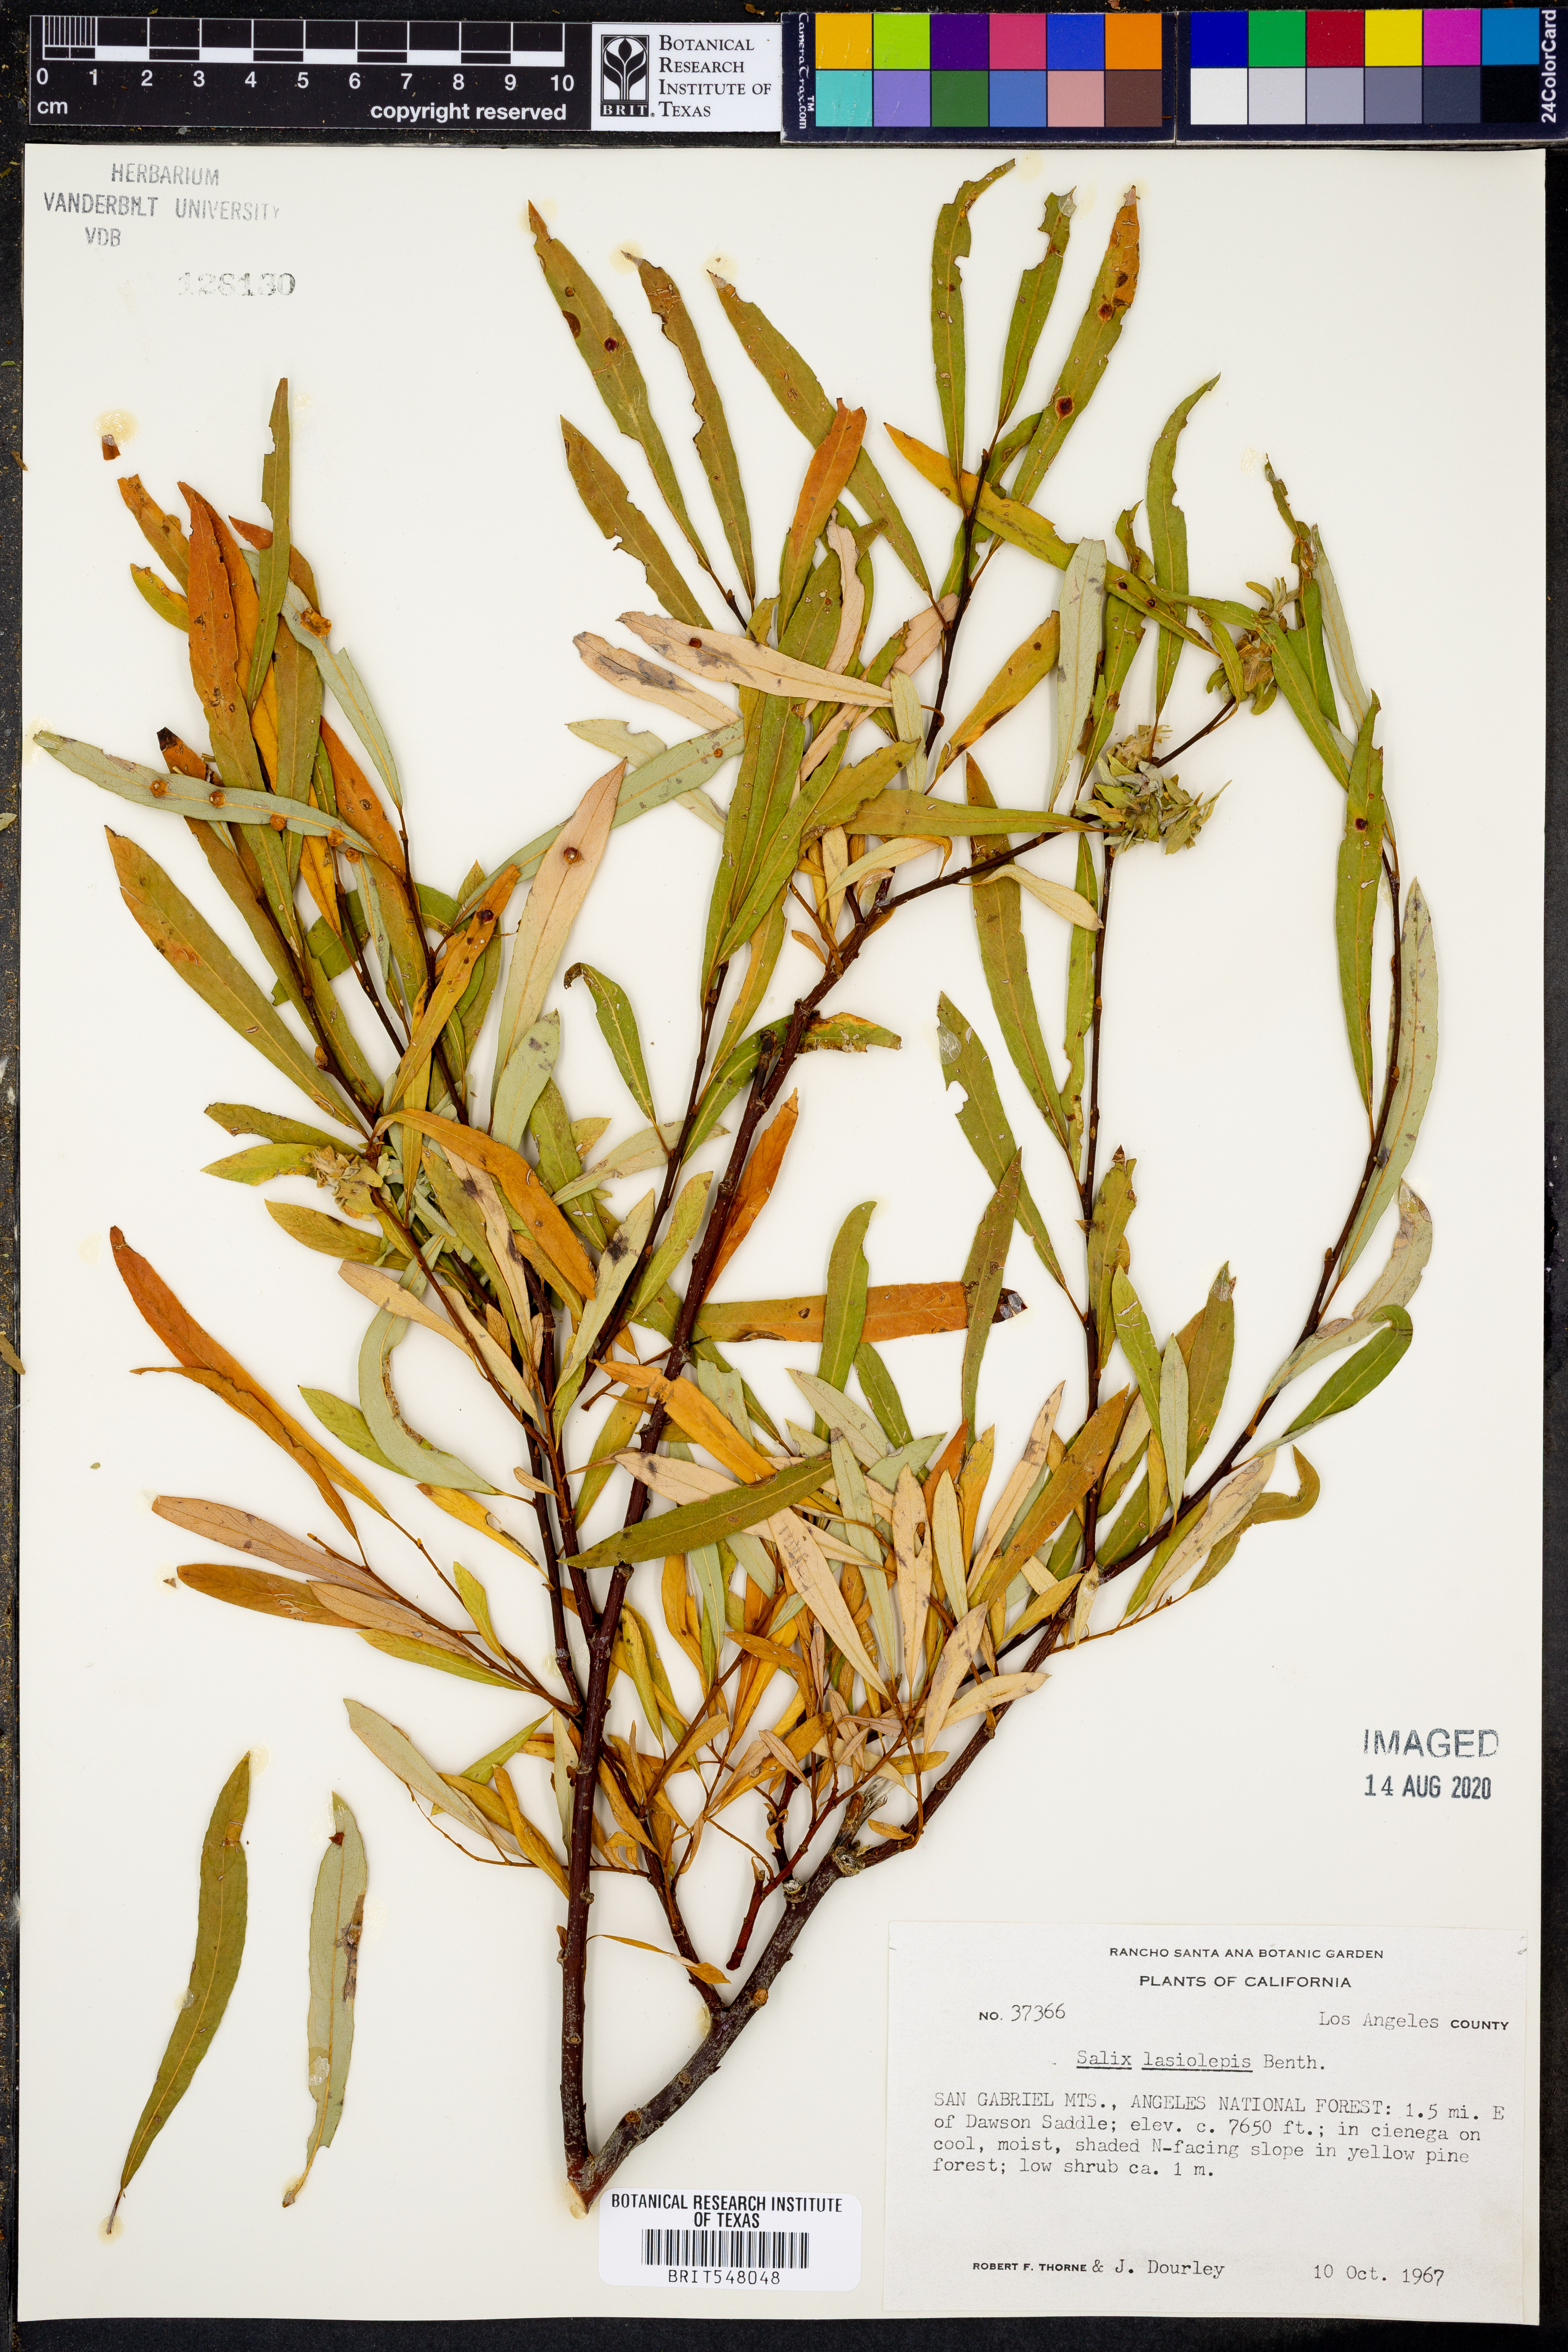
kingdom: Plantae
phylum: Tracheophyta
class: Magnoliopsida
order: Malpighiales
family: Salicaceae
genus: Salix
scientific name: Salix lasiolepis
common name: Arroyo willow
